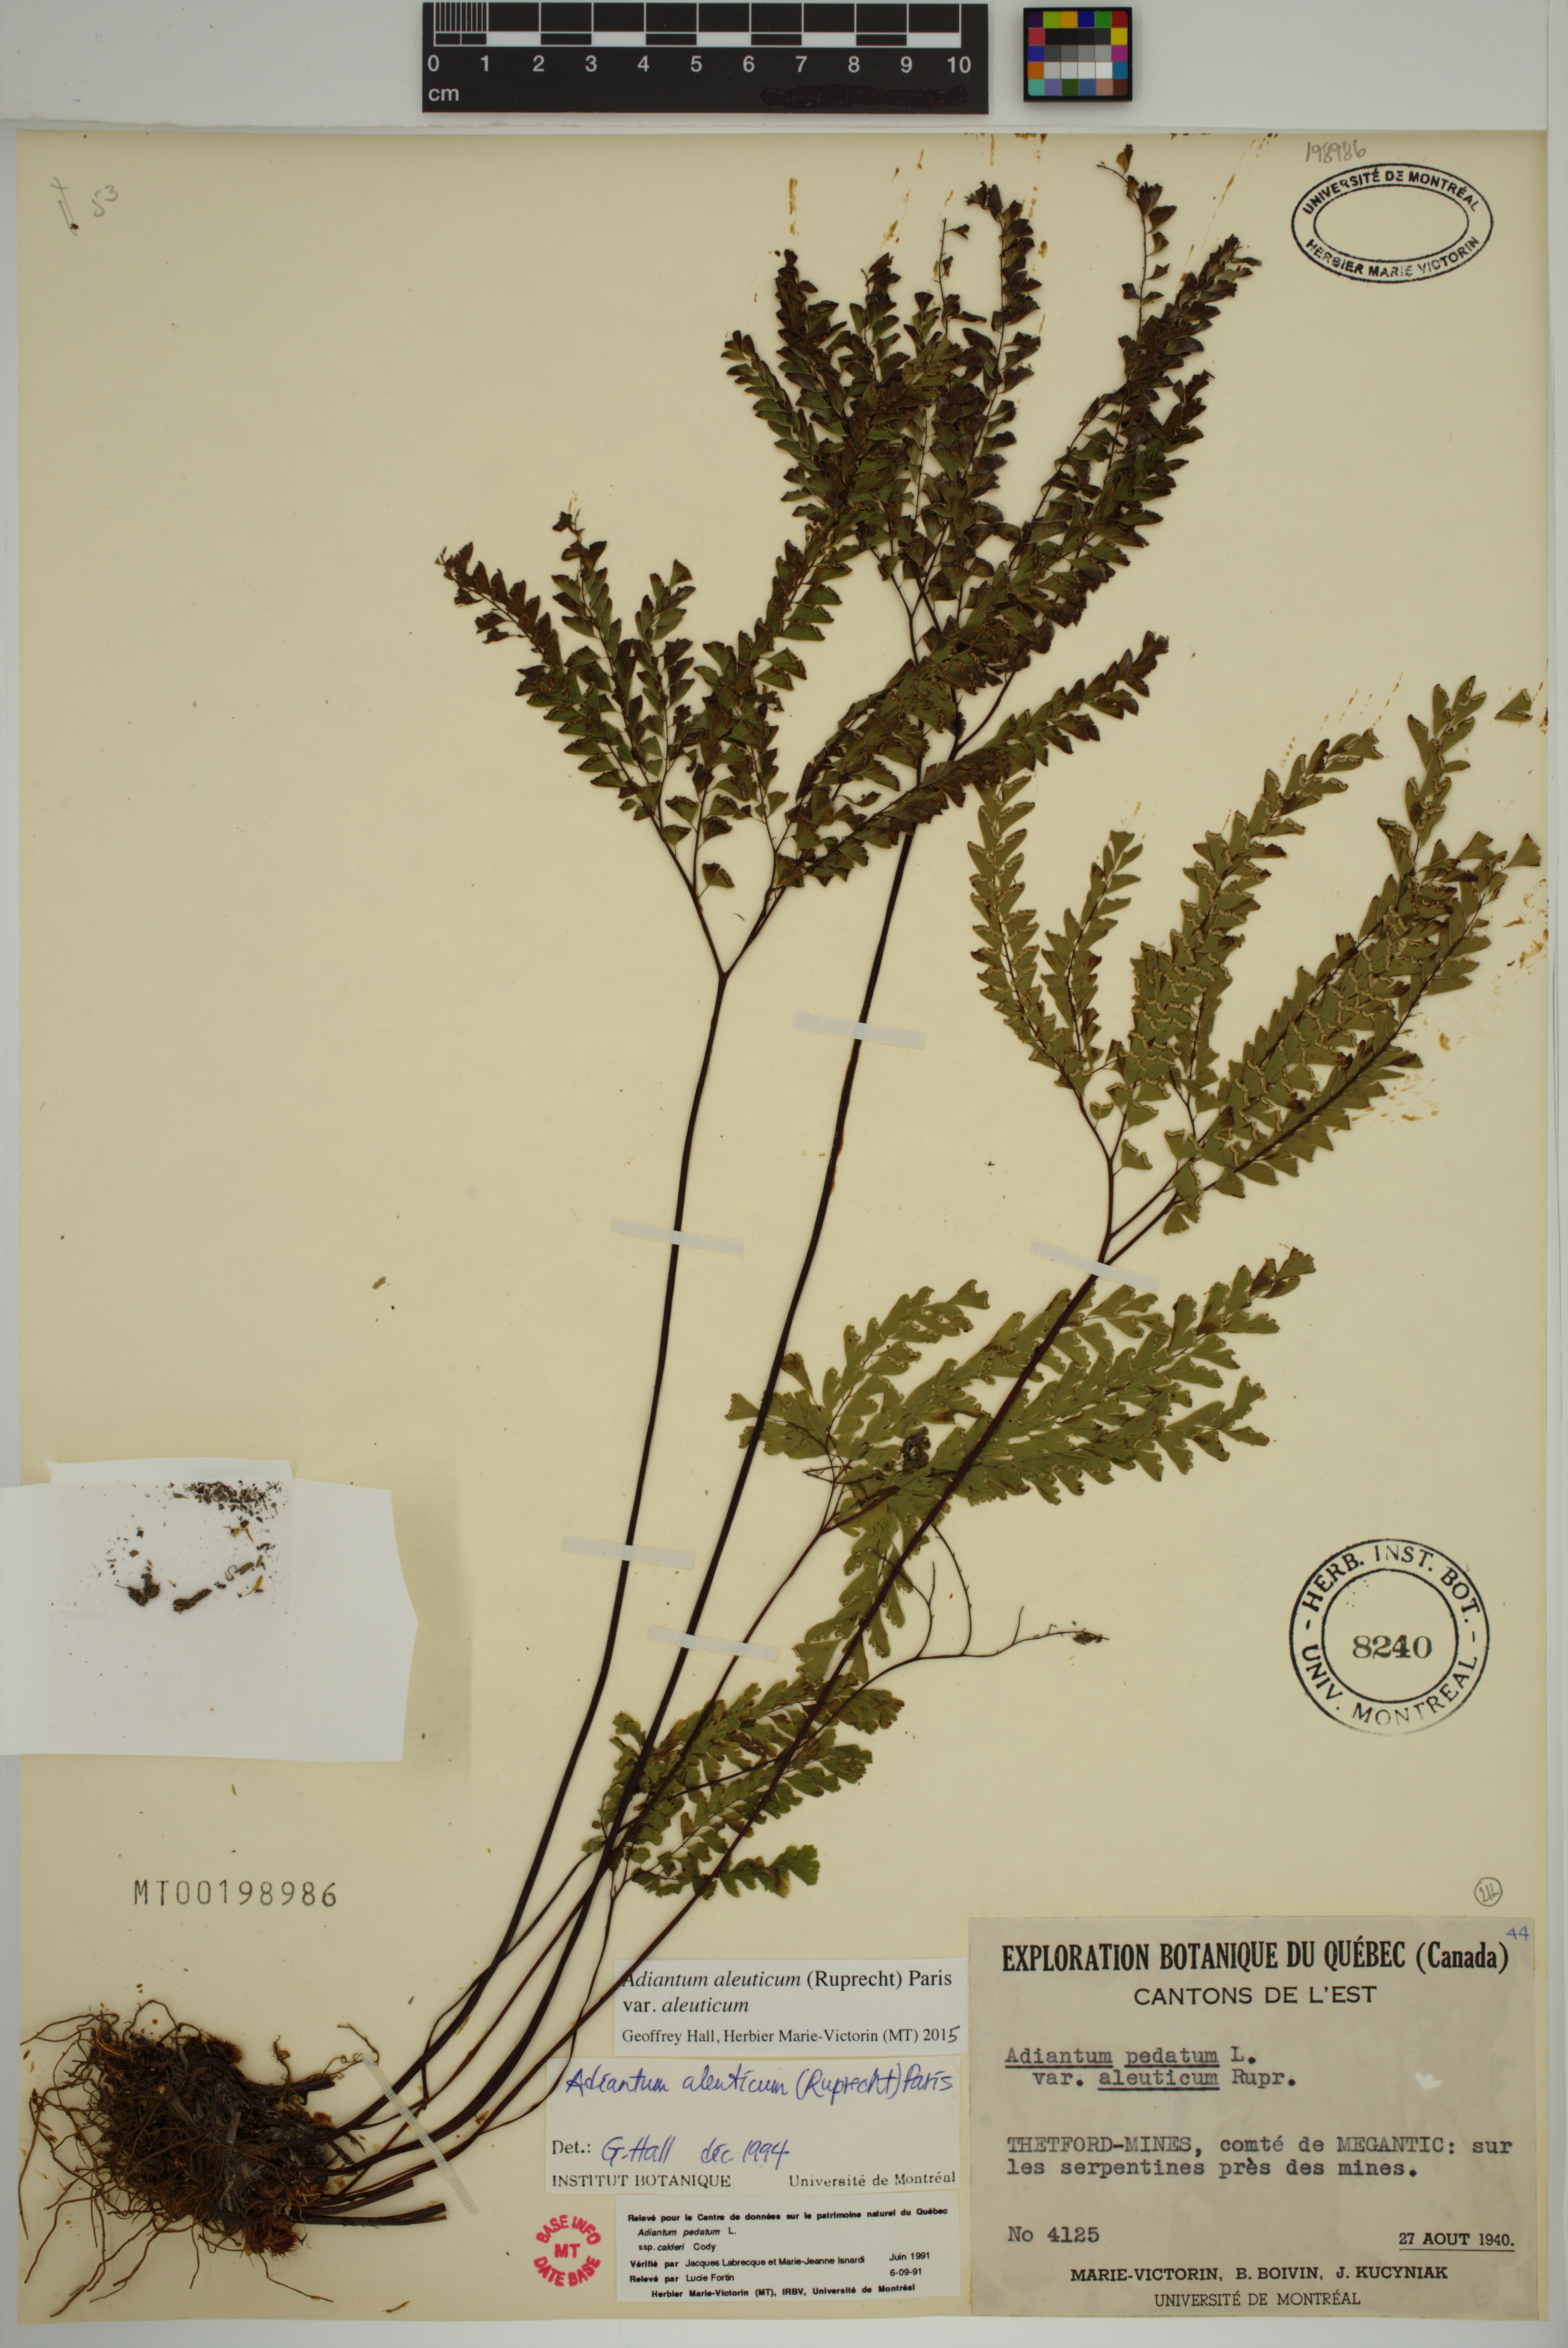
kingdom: Plantae
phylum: Tracheophyta
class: Polypodiopsida
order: Polypodiales
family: Pteridaceae
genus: Adiantum
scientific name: Adiantum aleuticum
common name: Aleutian maidenhair fern
